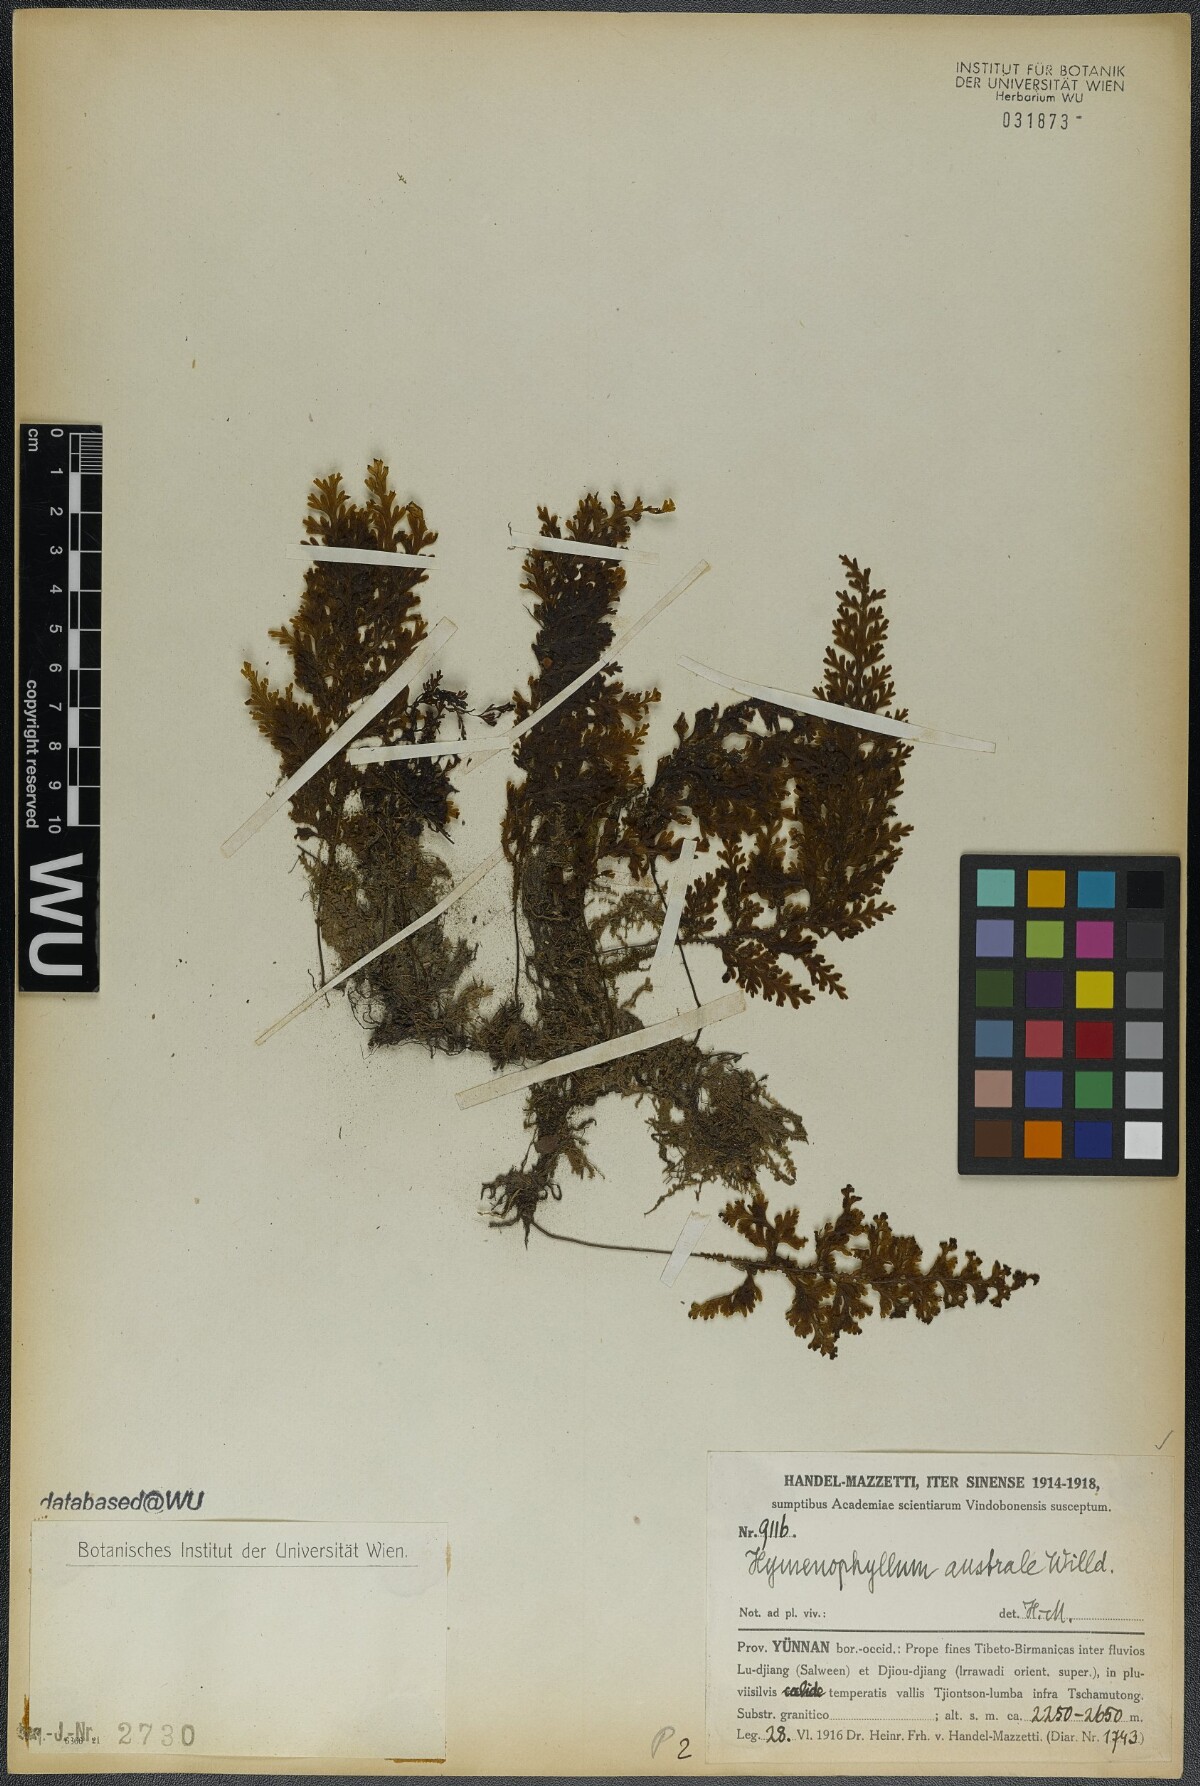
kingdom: Plantae
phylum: Tracheophyta
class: Polypodiopsida
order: Hymenophyllales
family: Hymenophyllaceae
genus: Hymenophyllum
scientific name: Hymenophyllum australe
